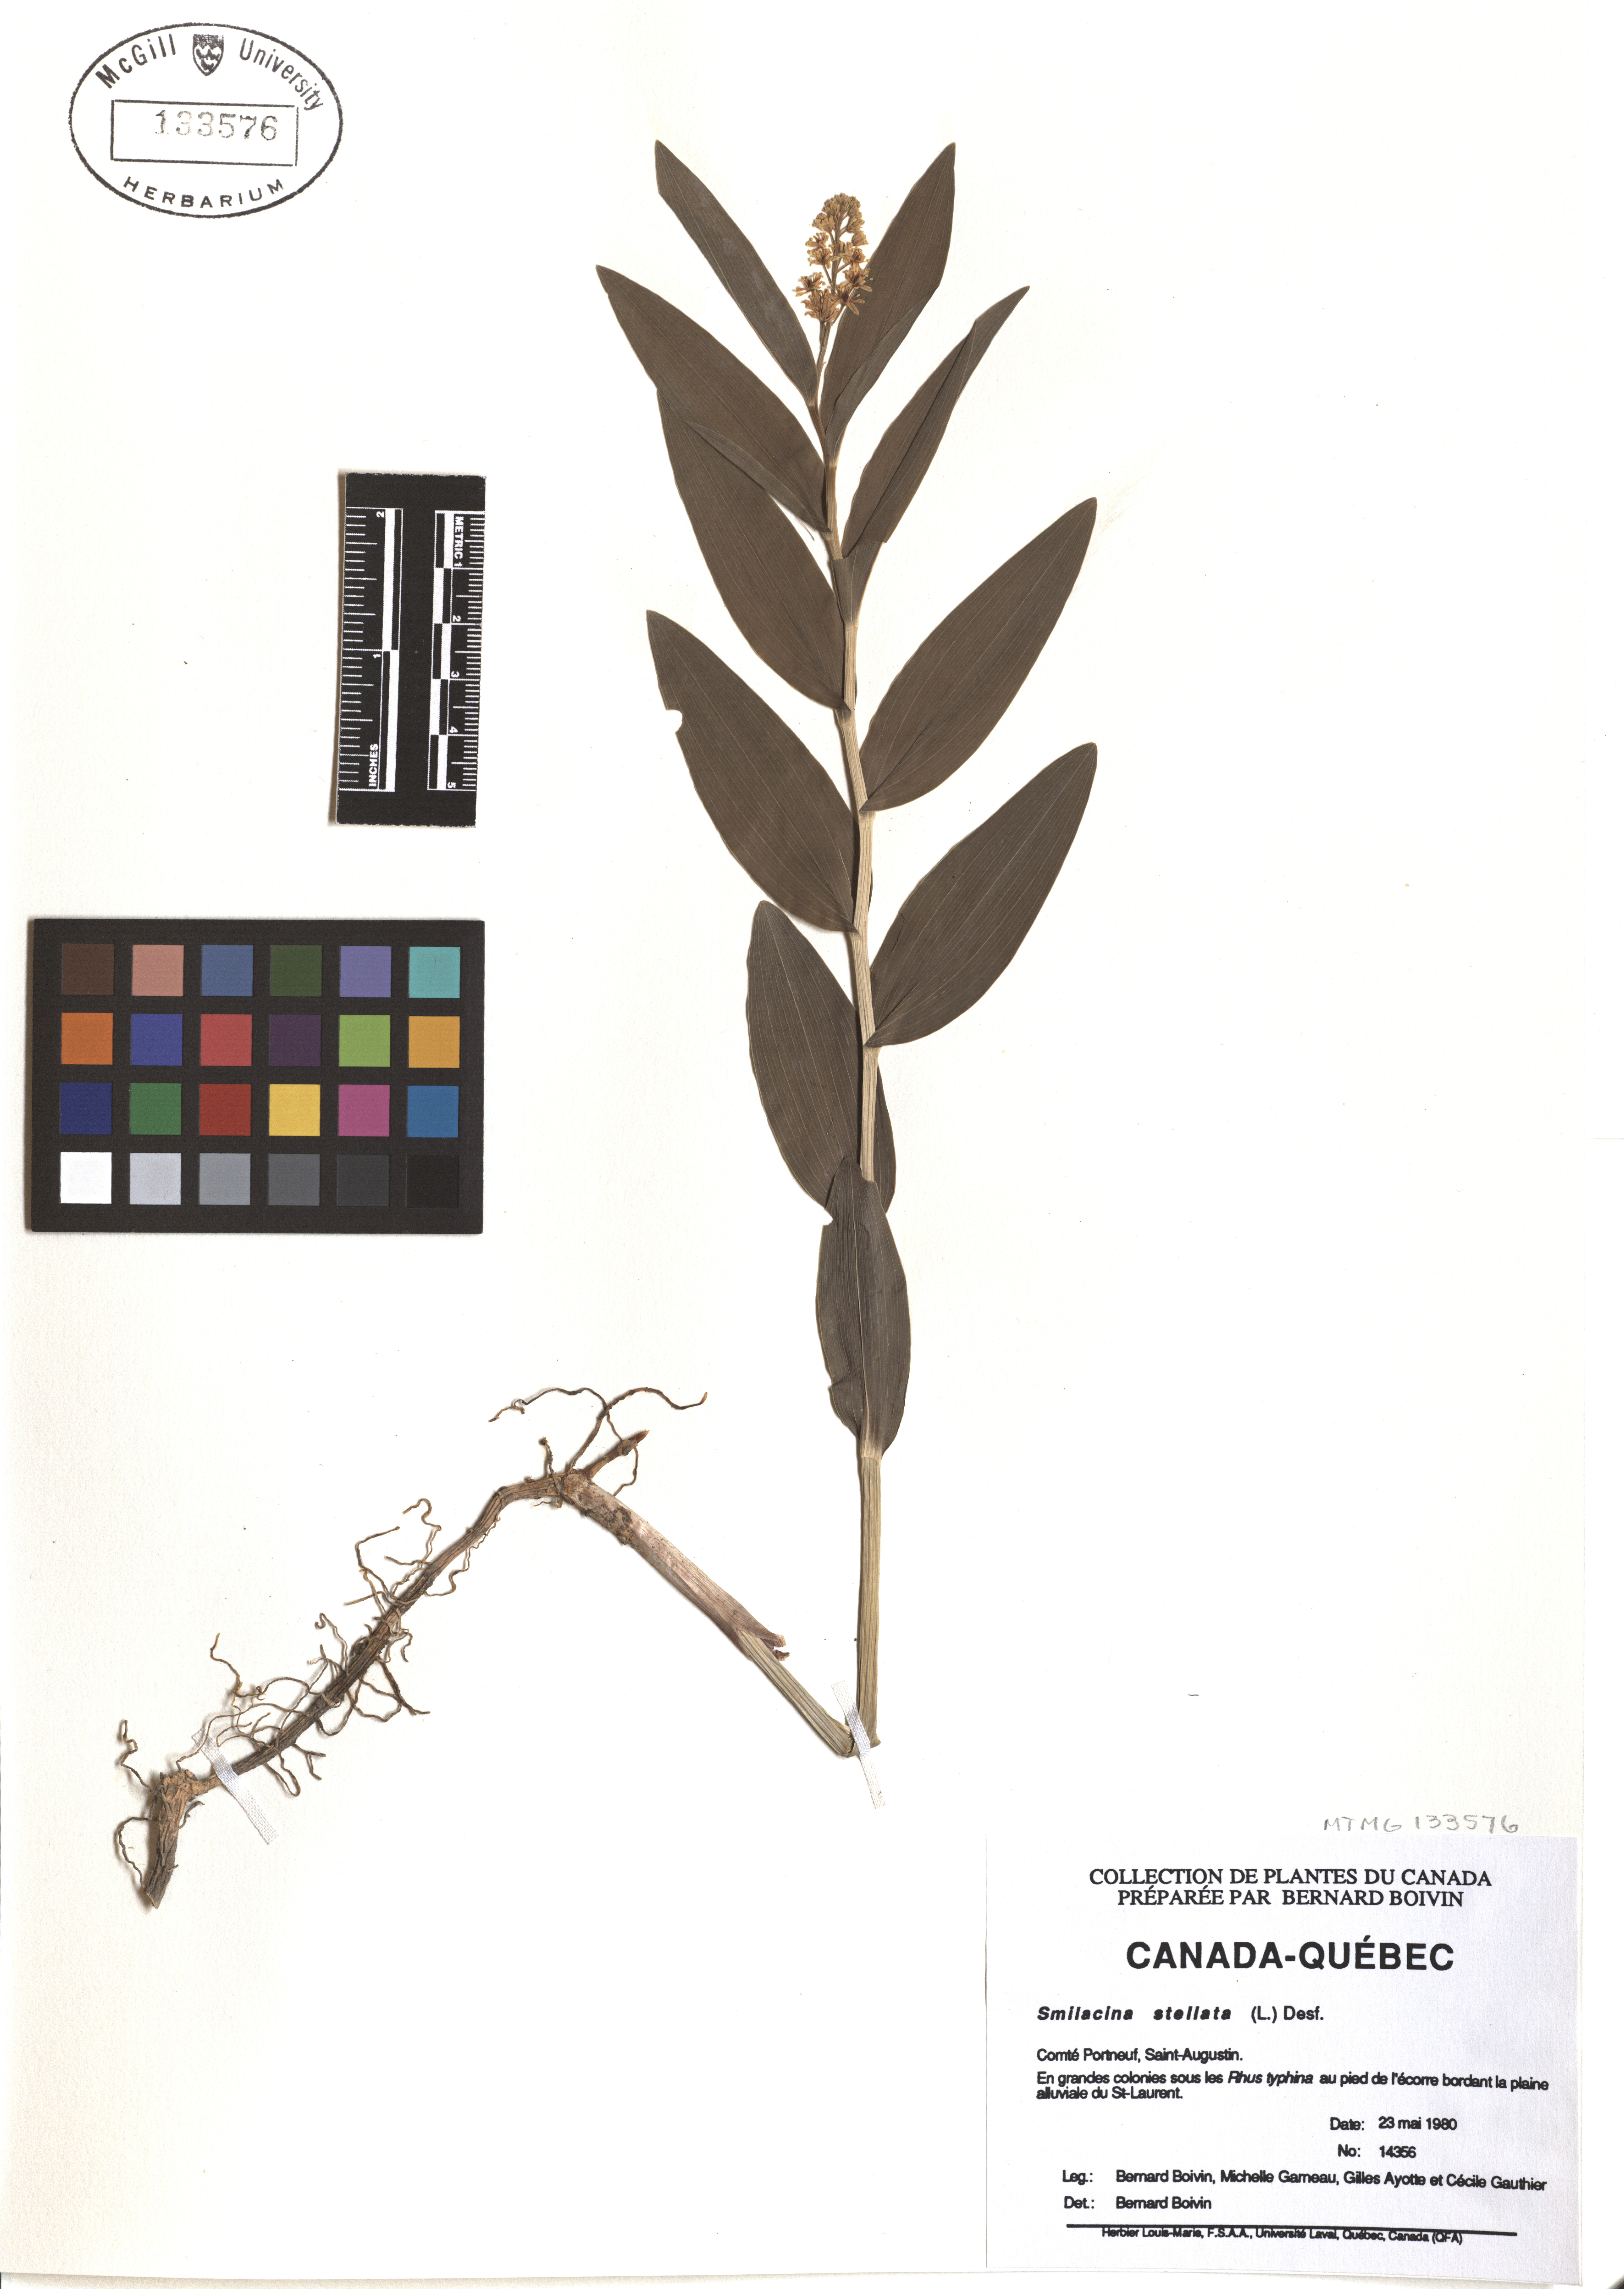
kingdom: Plantae
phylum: Tracheophyta
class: Liliopsida
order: Asparagales
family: Asparagaceae
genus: Maianthemum
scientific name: Maianthemum stellatum
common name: Little false solomon's seal
